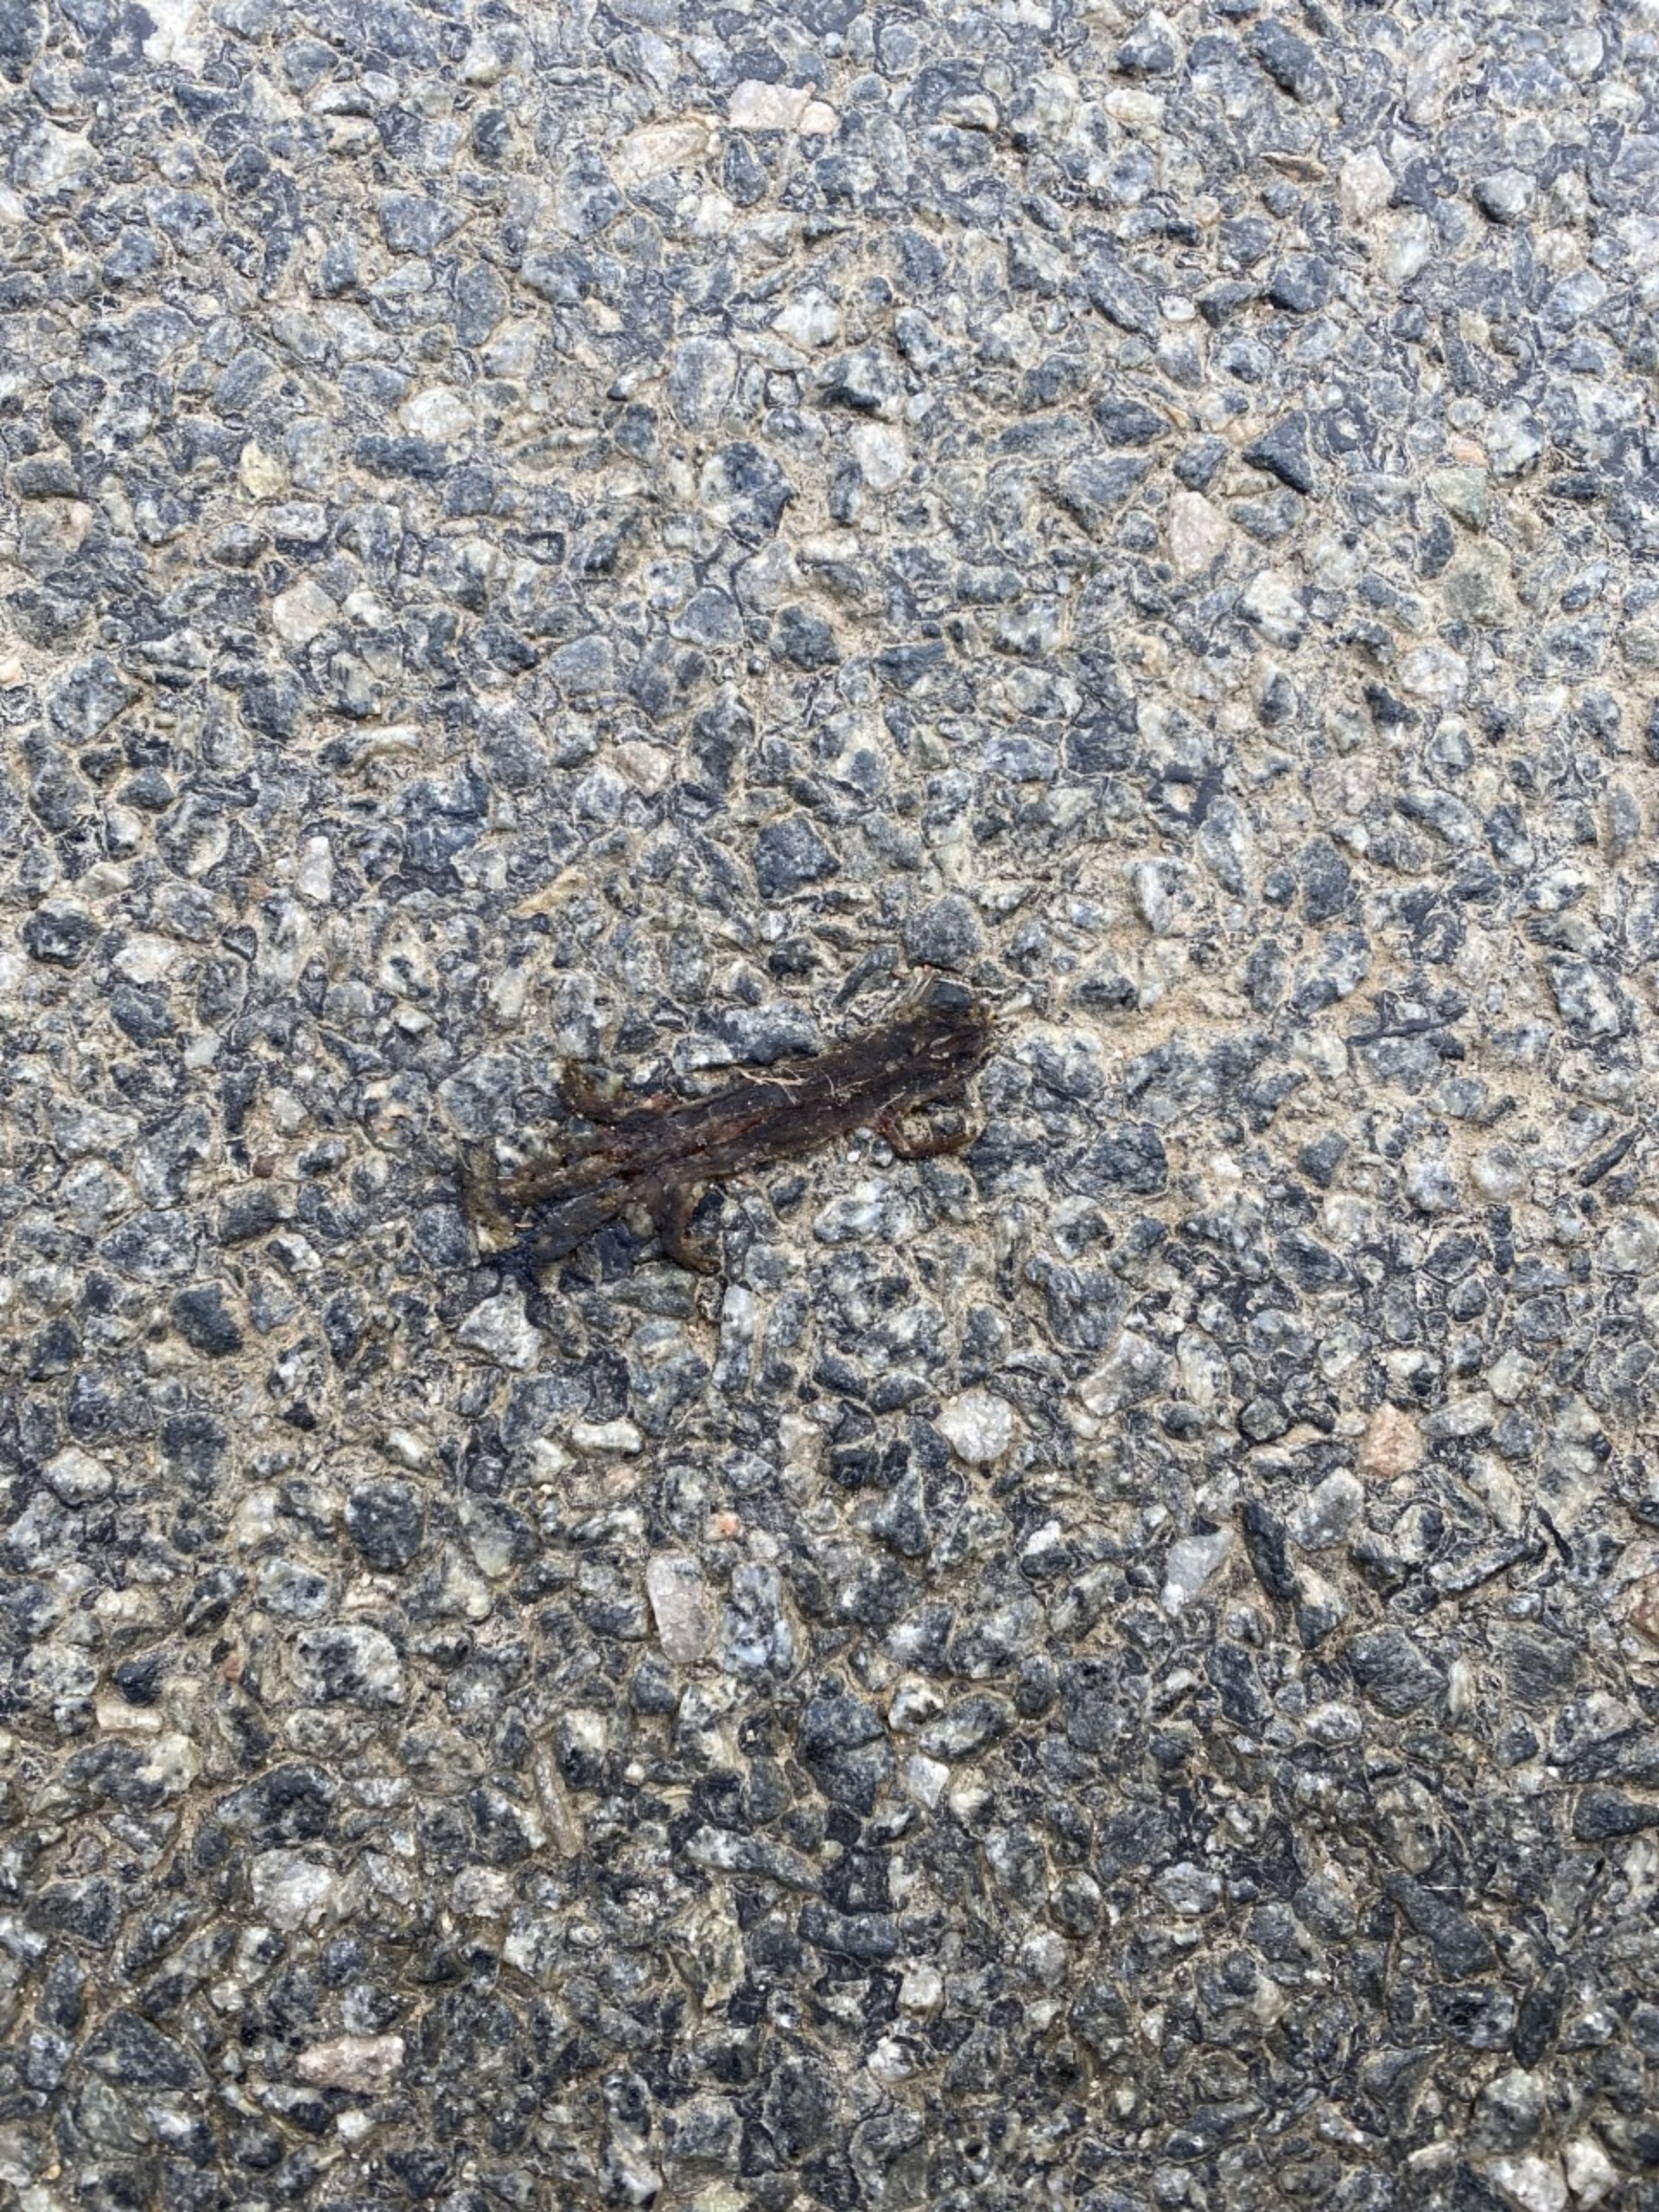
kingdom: Animalia
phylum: Chordata
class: Amphibia
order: Caudata
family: Salamandridae
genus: Lissotriton
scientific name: Lissotriton vulgaris
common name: Lille vandsalamander
